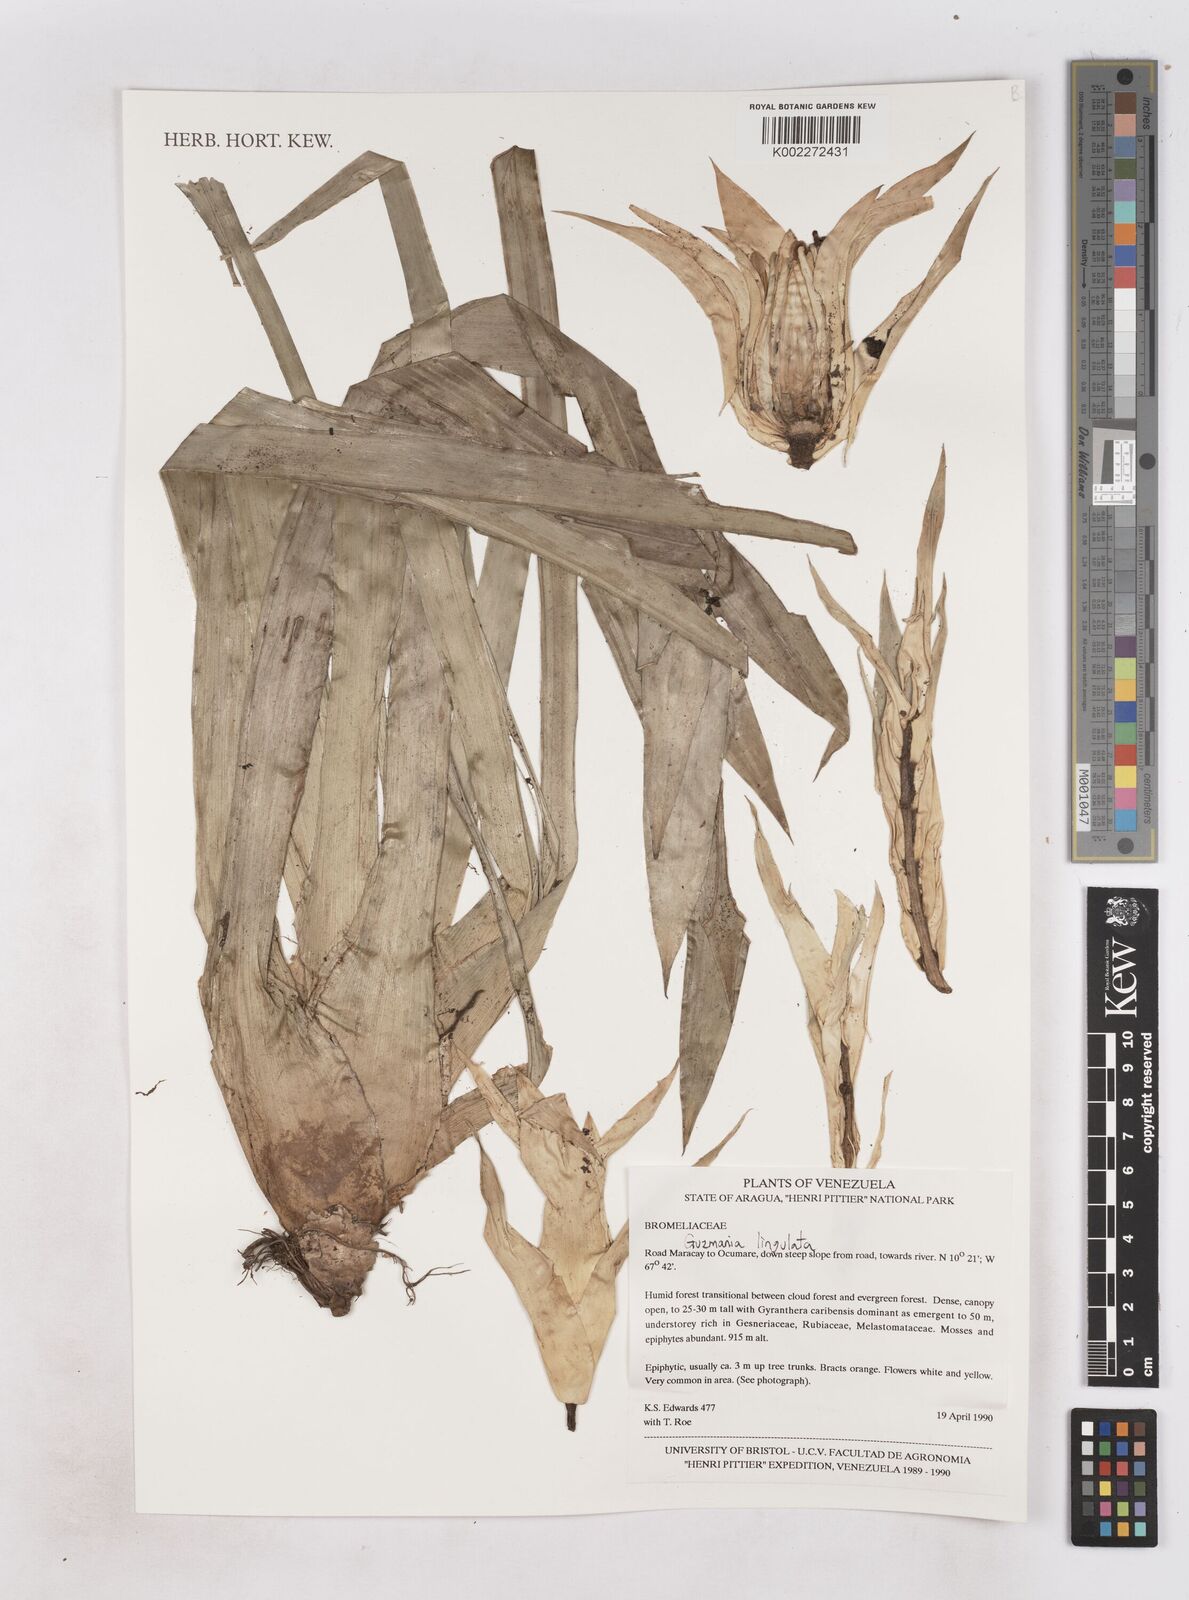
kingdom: Plantae
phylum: Tracheophyta
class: Liliopsida
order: Poales
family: Bromeliaceae
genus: Guzmania
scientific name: Guzmania lingulata
